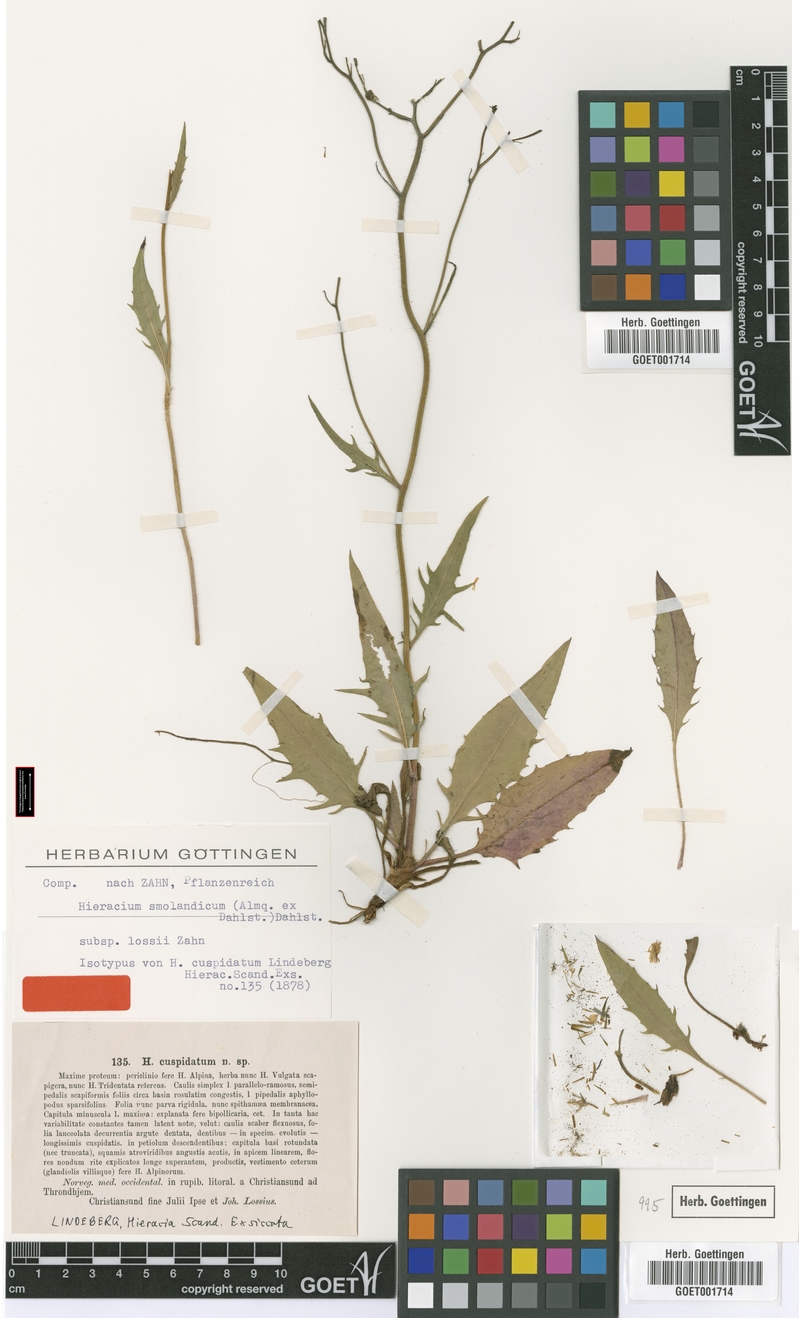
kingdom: Plantae
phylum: Tracheophyta
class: Magnoliopsida
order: Asterales
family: Asteraceae
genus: Hieracium
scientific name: Hieracium pholidotum
